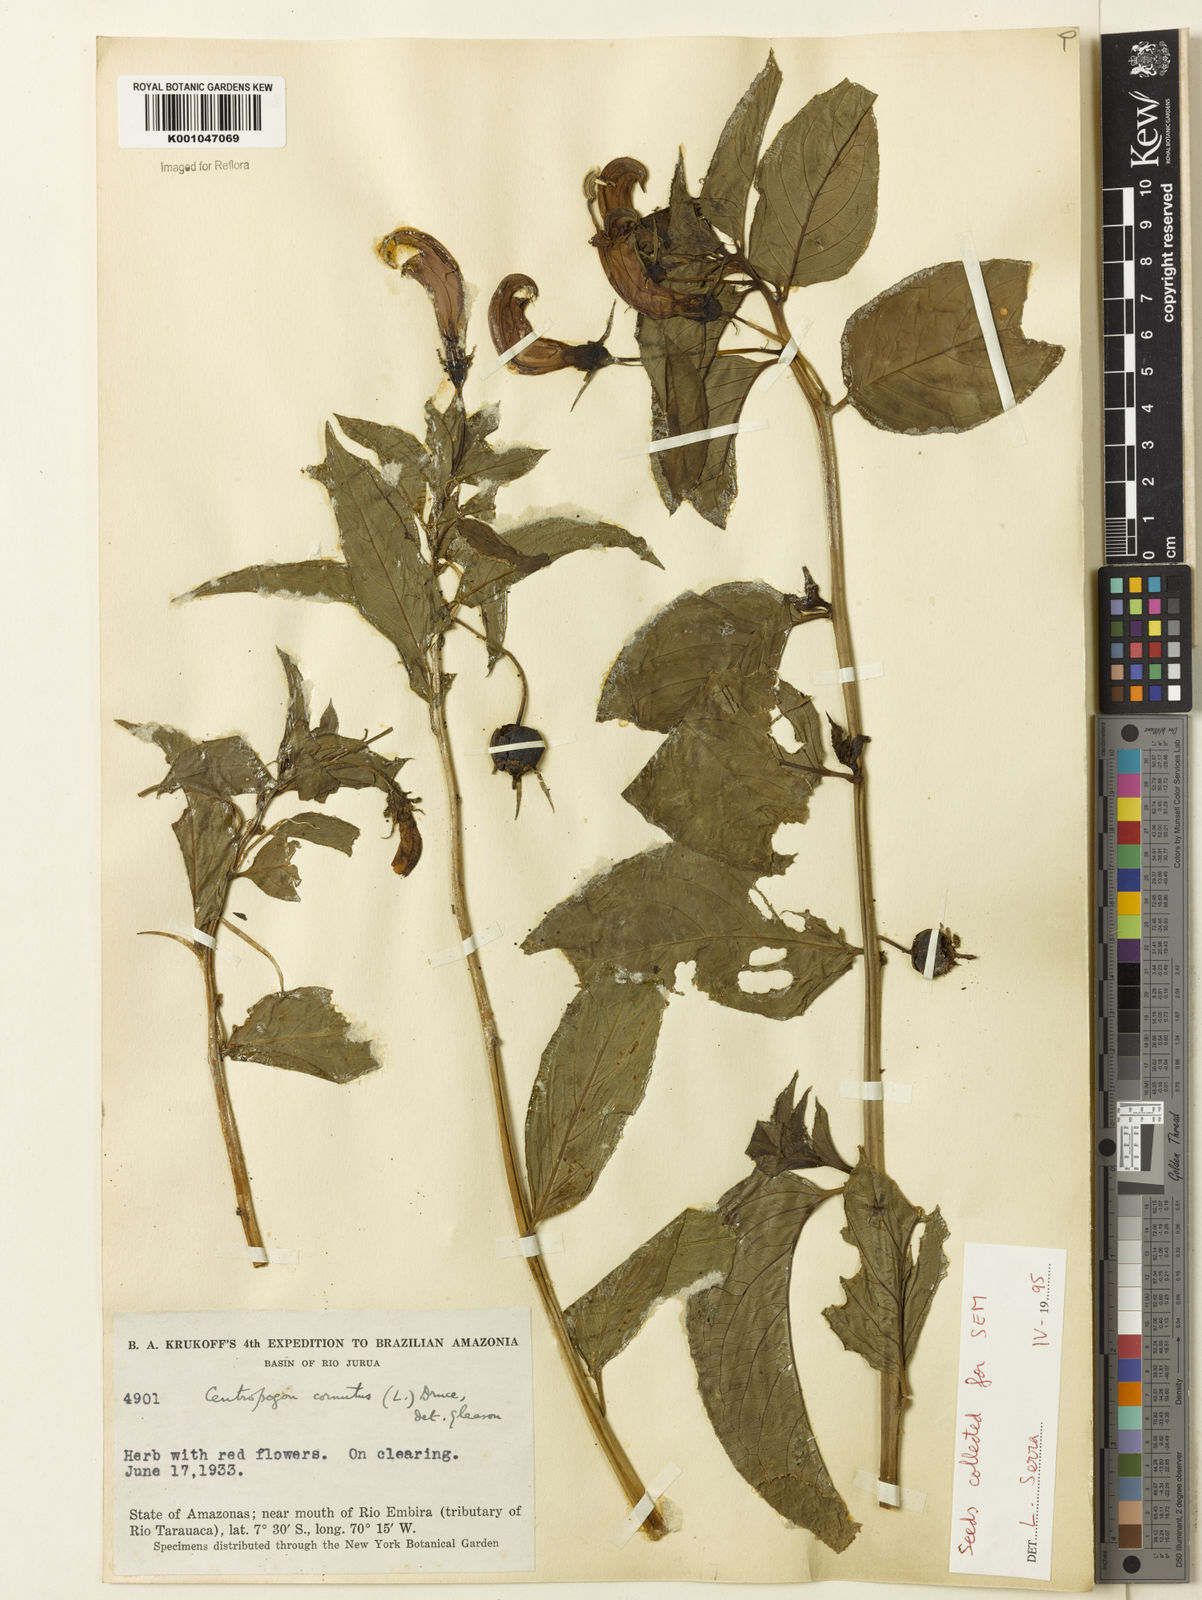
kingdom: Plantae
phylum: Tracheophyta
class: Magnoliopsida
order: Asterales
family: Campanulaceae
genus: Centropogon
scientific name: Centropogon cornutus
